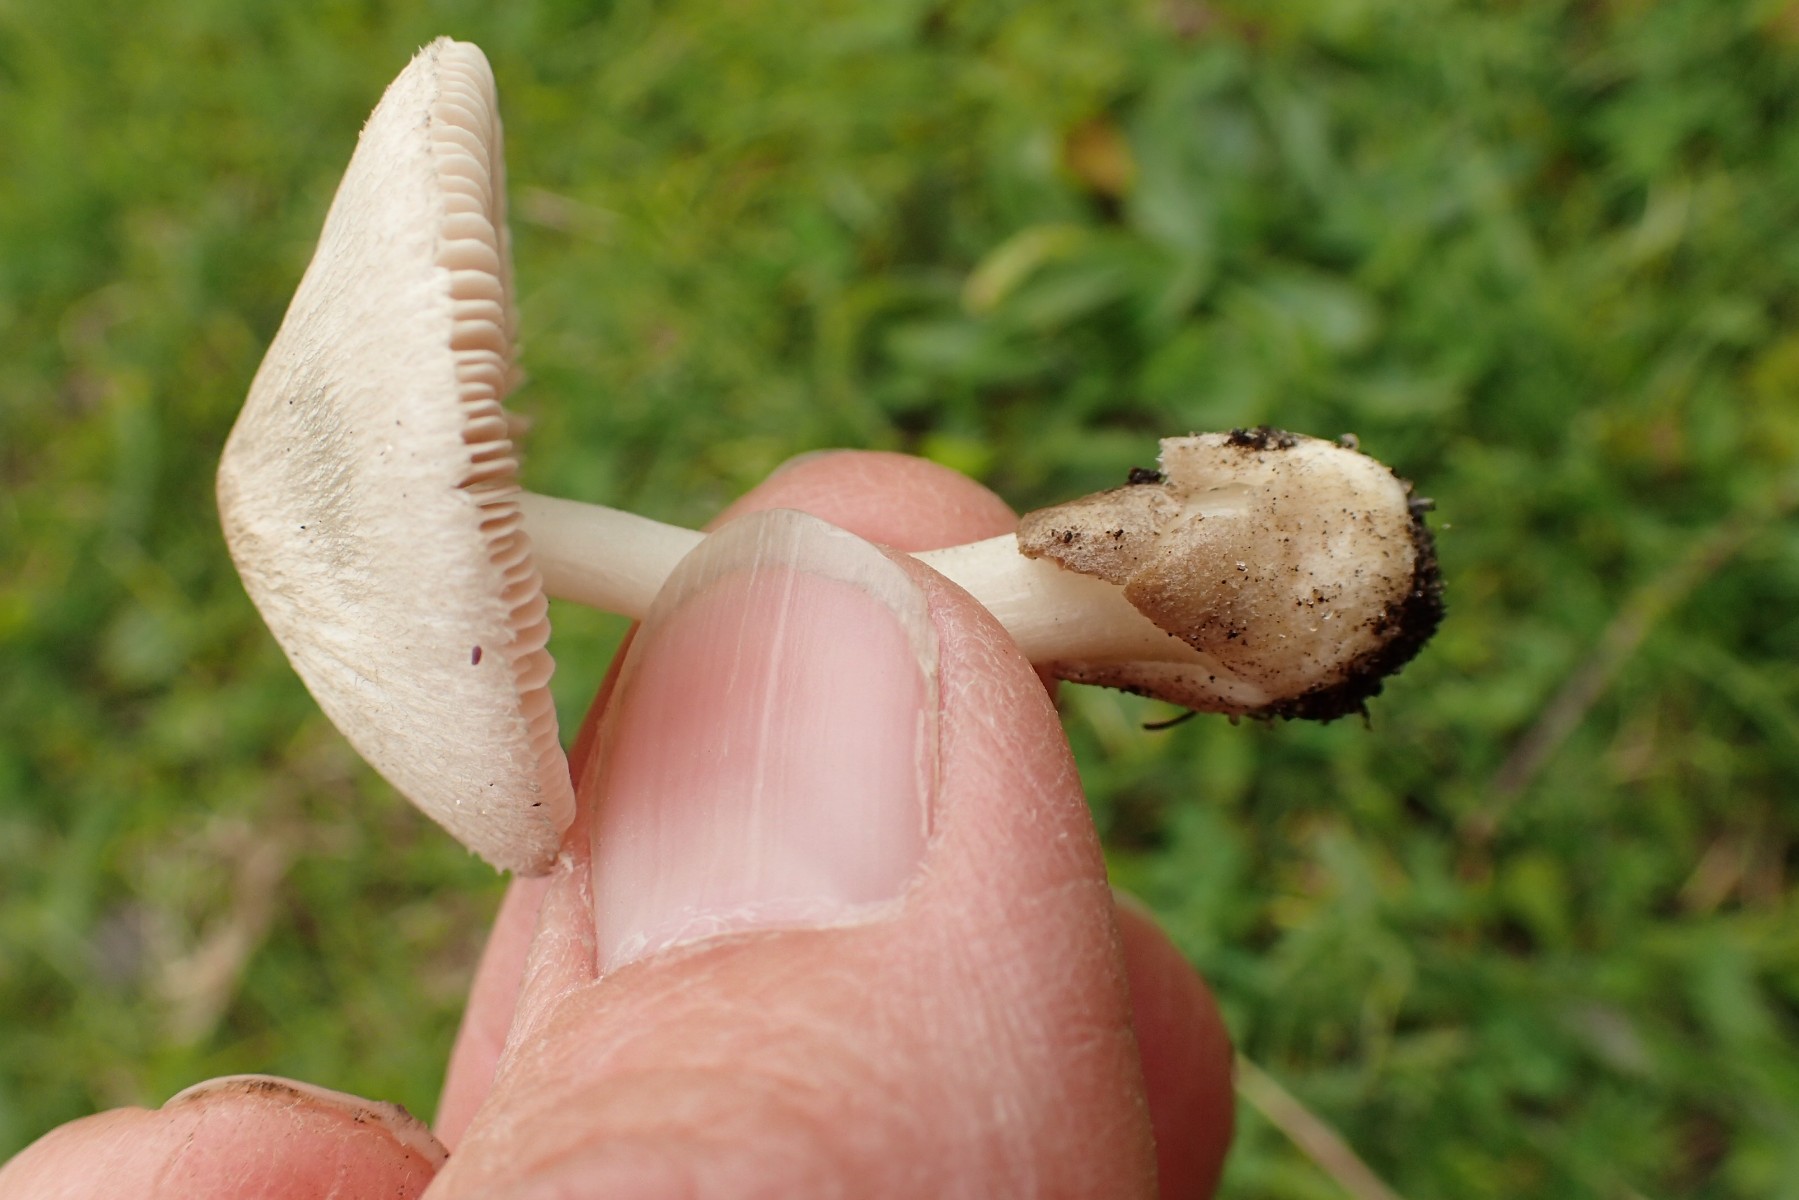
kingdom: Fungi
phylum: Basidiomycota
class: Agaricomycetes
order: Agaricales
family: Pluteaceae
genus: Volvariella
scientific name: Volvariella murinella
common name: musegrå posesvamp
